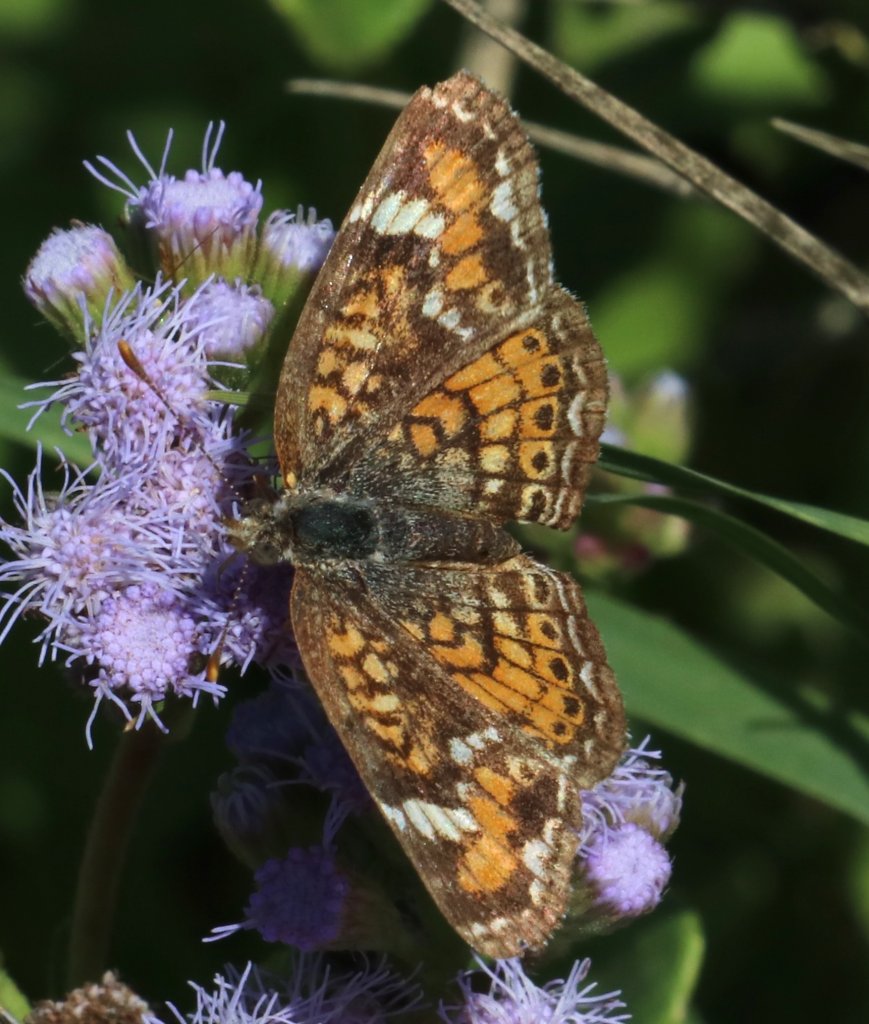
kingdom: Animalia
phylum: Arthropoda
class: Insecta
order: Lepidoptera
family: Nymphalidae
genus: Phyciodes
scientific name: Phyciodes phaon
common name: Phaon Crescent
